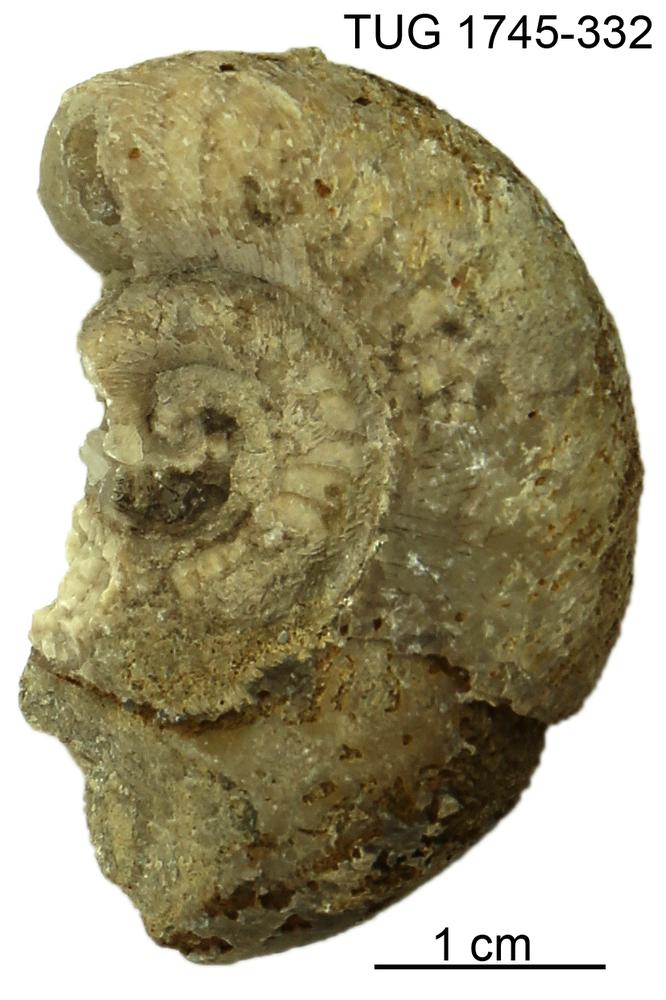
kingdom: Animalia
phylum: Mollusca
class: Cephalopoda
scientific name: Cephalopoda
